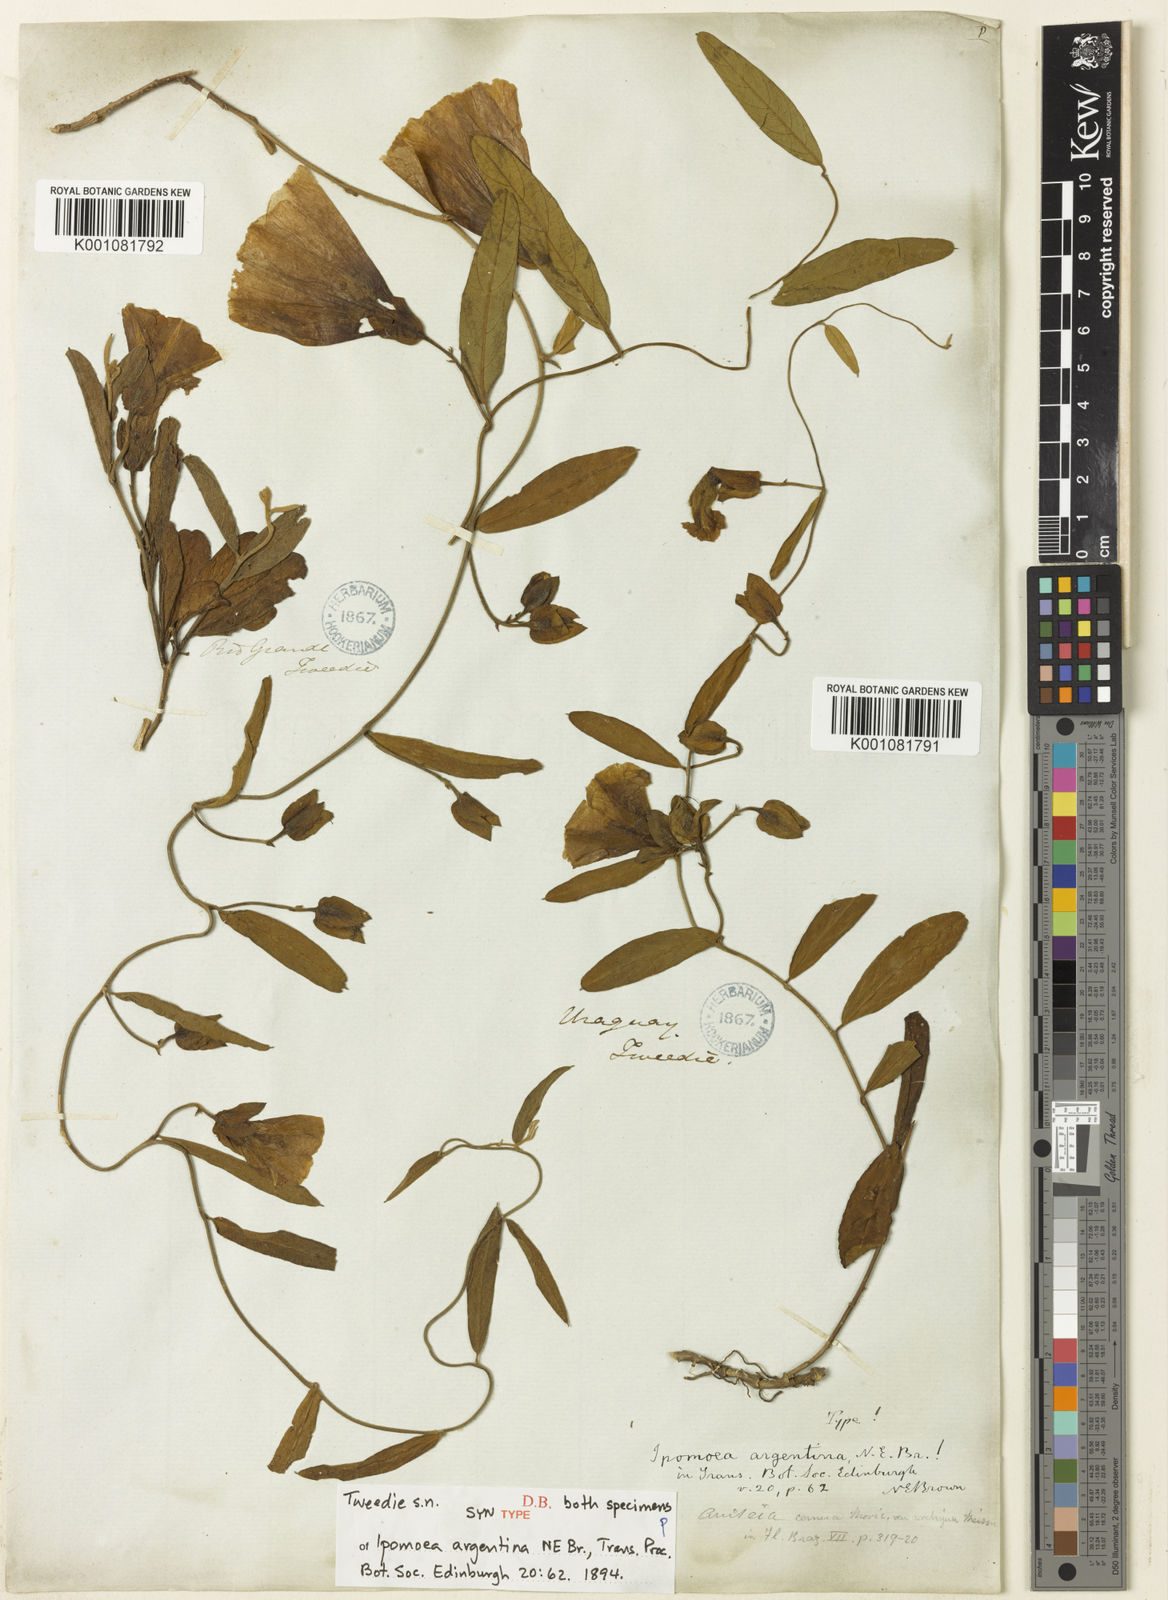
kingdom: Plantae
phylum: Tracheophyta
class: Magnoliopsida
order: Solanales
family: Convolvulaceae
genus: Aniseia
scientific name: Aniseia argentina
